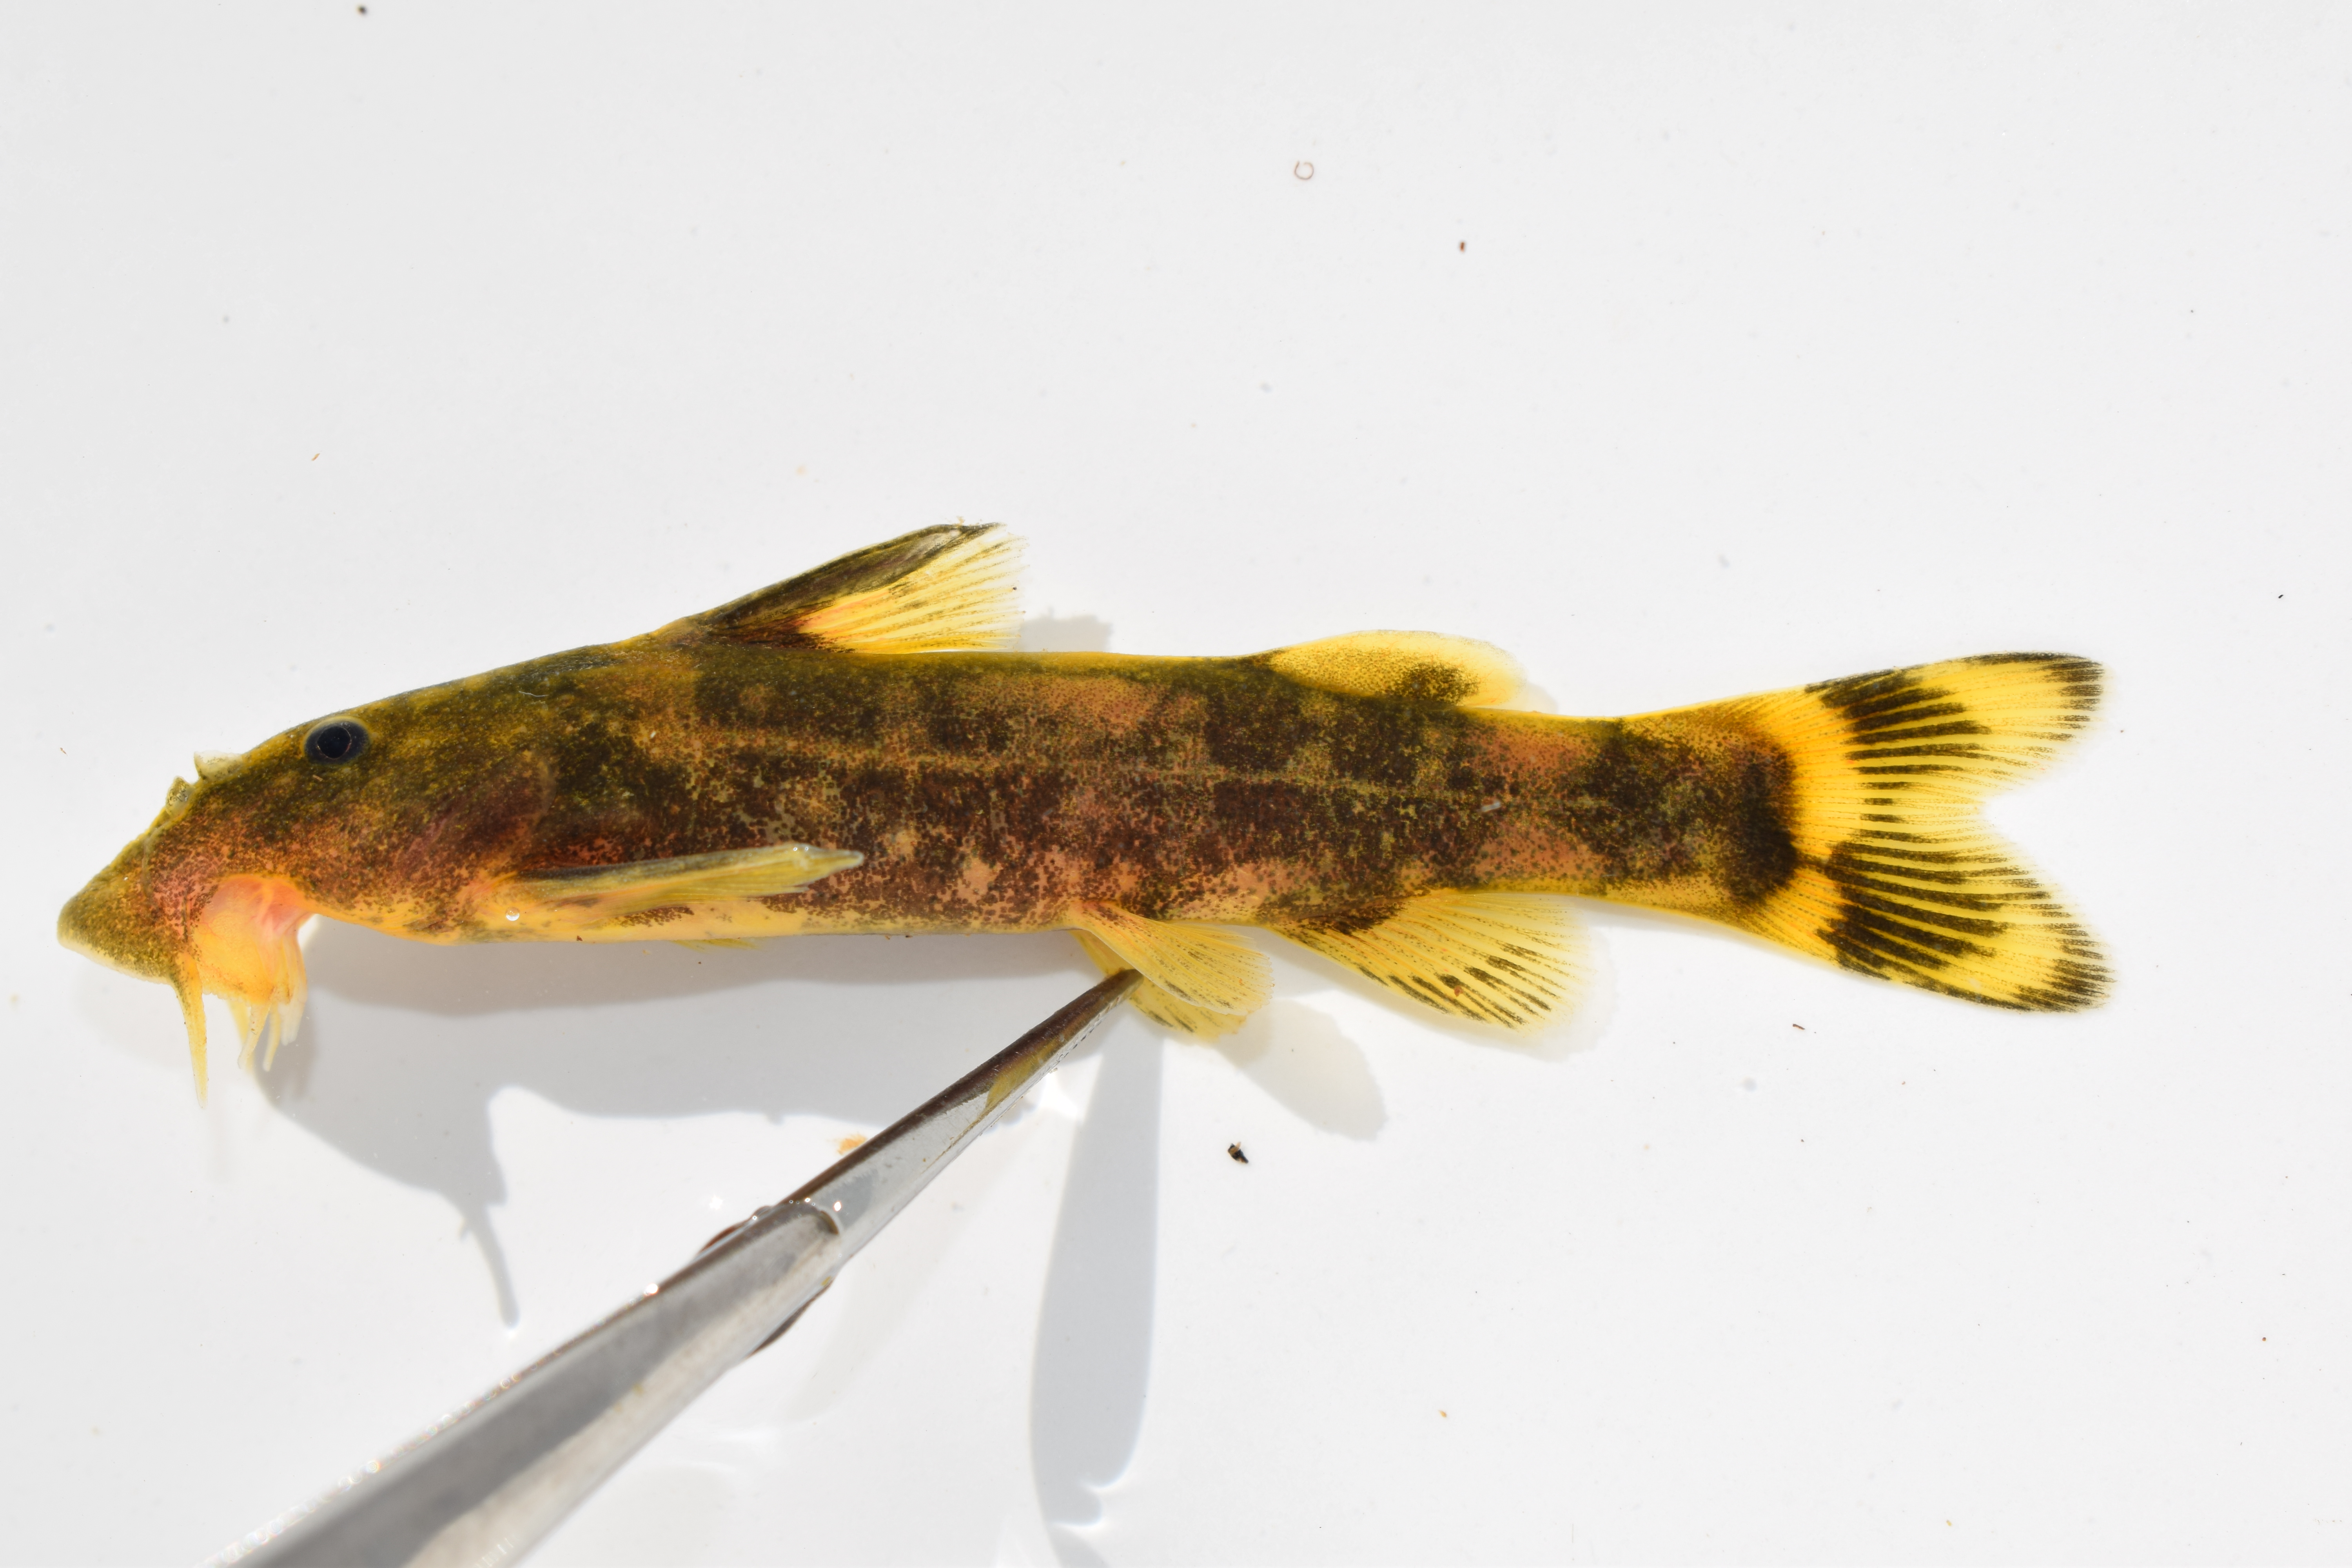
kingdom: Animalia
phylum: Chordata
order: Siluriformes
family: Mochokidae
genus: Chiloglanis
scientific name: Chiloglanis paratus
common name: Sawfin catlet
